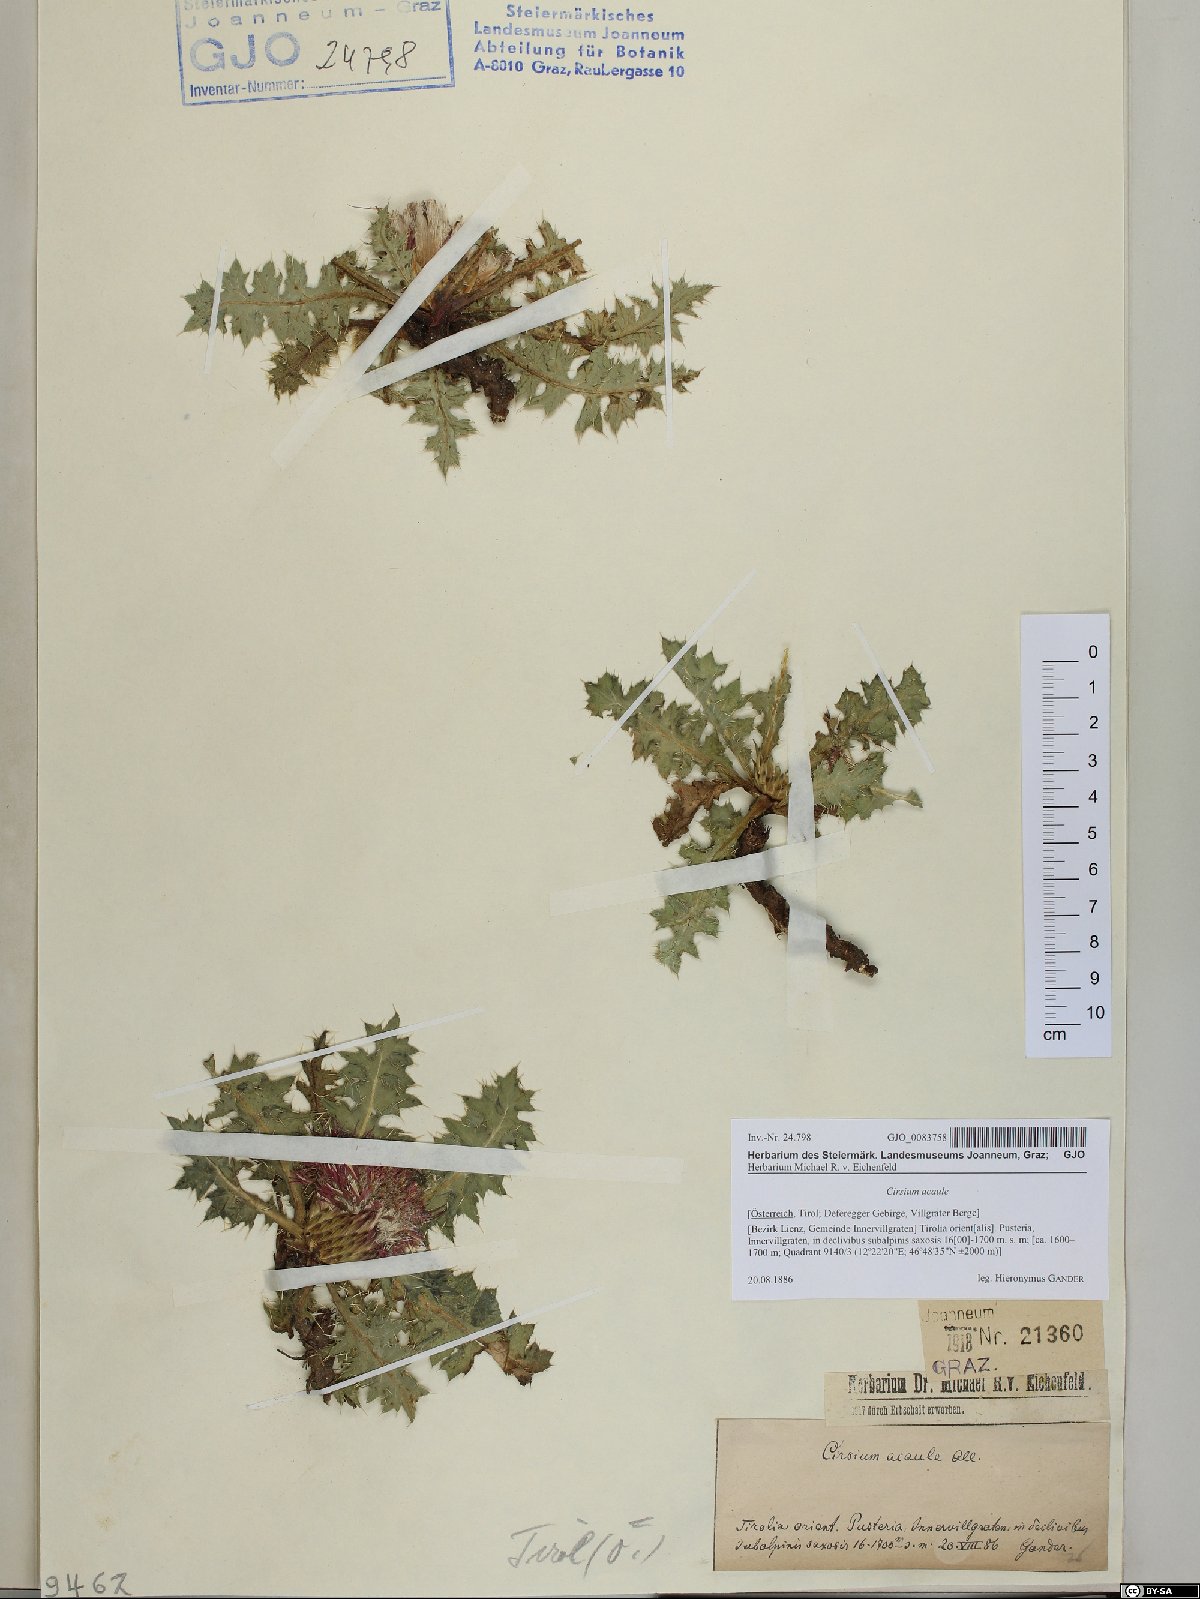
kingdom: Plantae
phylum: Tracheophyta
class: Magnoliopsida
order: Asterales
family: Asteraceae
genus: Cirsium
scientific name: Cirsium acaulon
